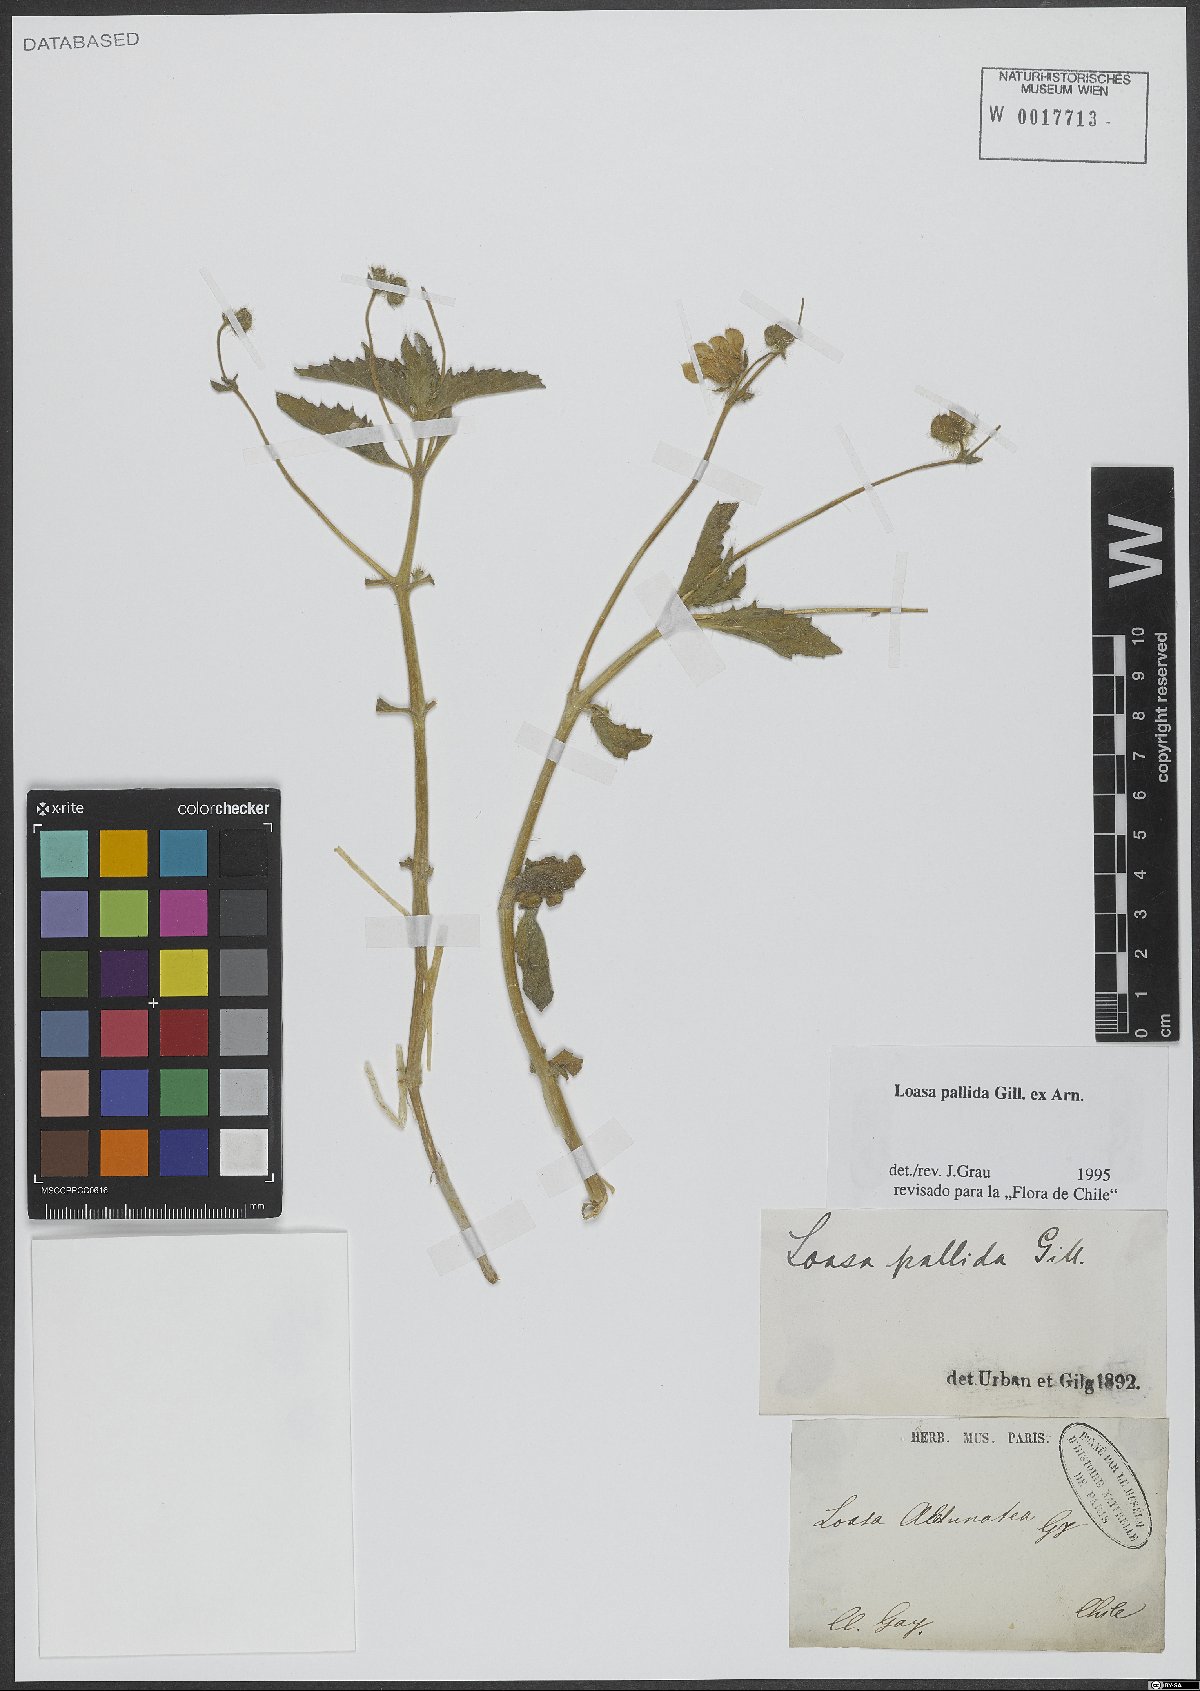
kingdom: Plantae
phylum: Tracheophyta
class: Magnoliopsida
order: Cornales
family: Loasaceae
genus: Loasa
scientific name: Loasa pallida
